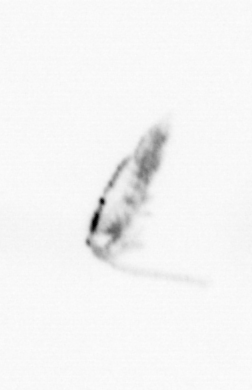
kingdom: Animalia
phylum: Arthropoda
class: Copepoda
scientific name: Copepoda
